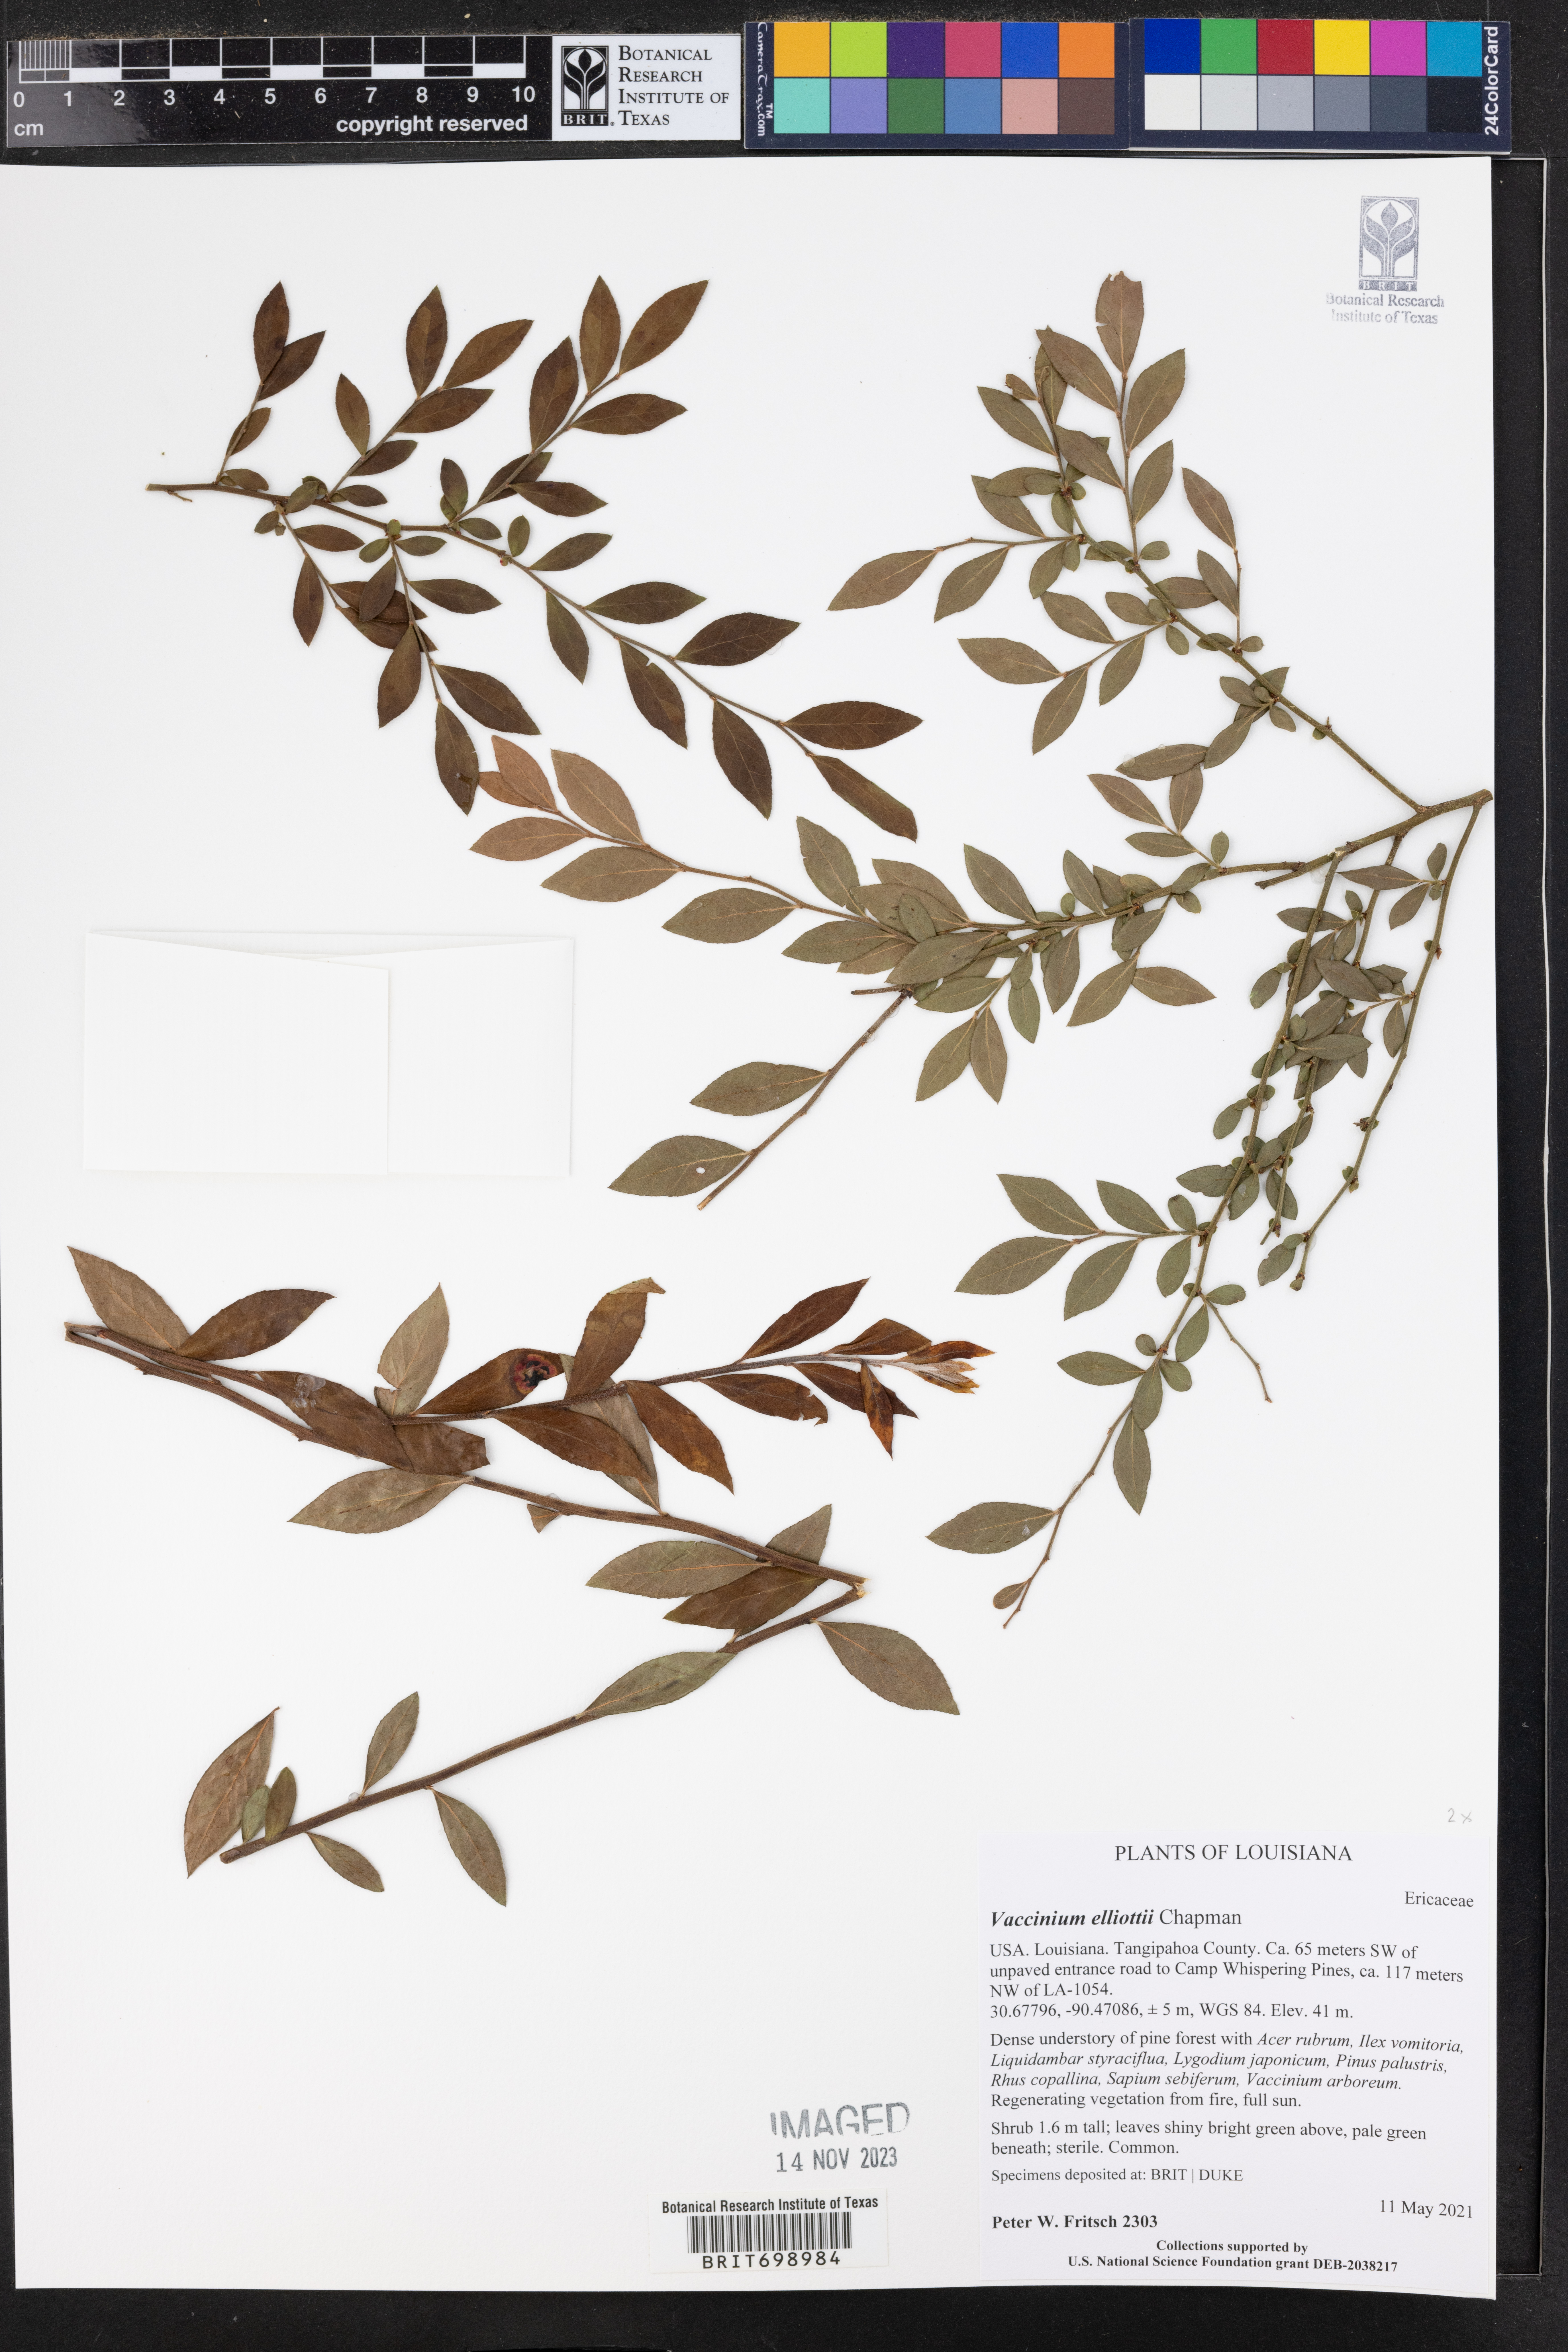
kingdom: Plantae
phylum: Tracheophyta
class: Magnoliopsida
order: Ericales
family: Ericaceae
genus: Vaccinium
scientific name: Vaccinium corymbosum
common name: Blueberry
